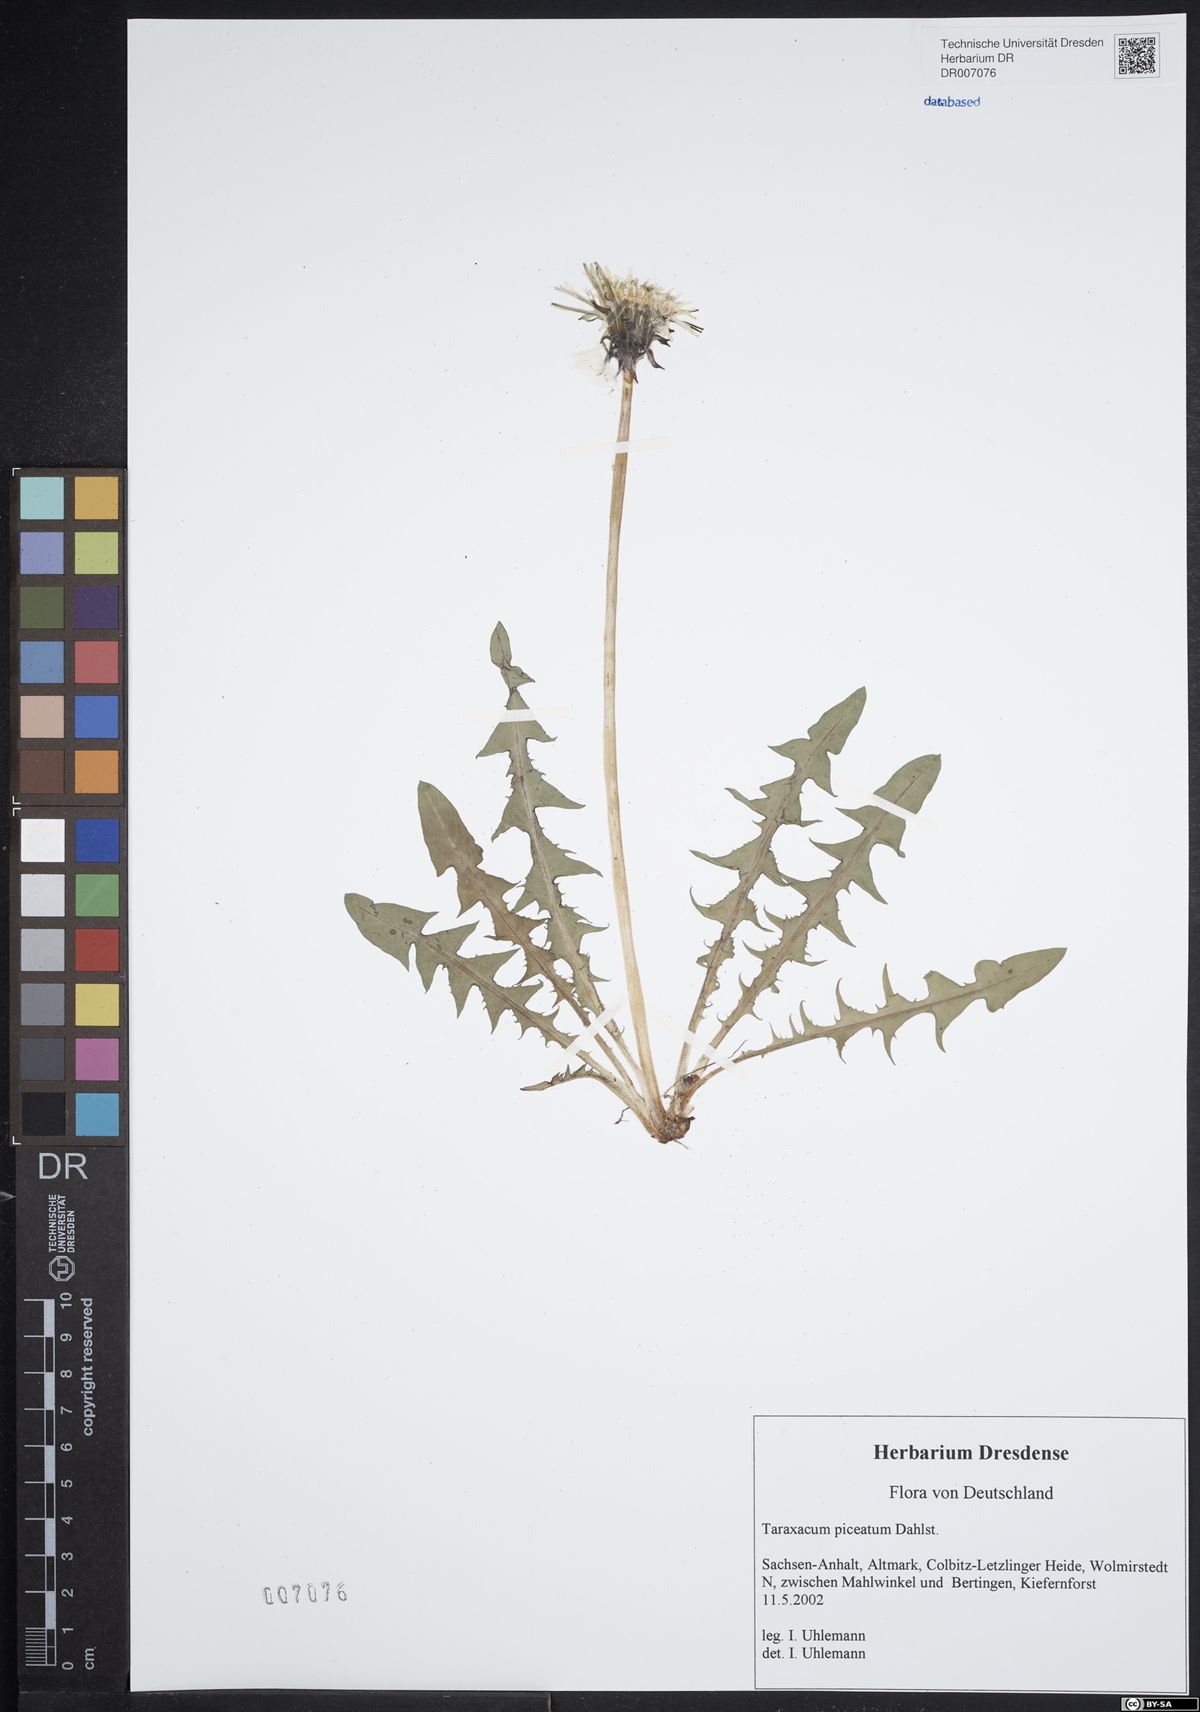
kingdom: Plantae
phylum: Tracheophyta
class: Magnoliopsida
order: Asterales
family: Asteraceae
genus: Taraxacum
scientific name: Taraxacum piceatum
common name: Leaden-bracted dandelion
